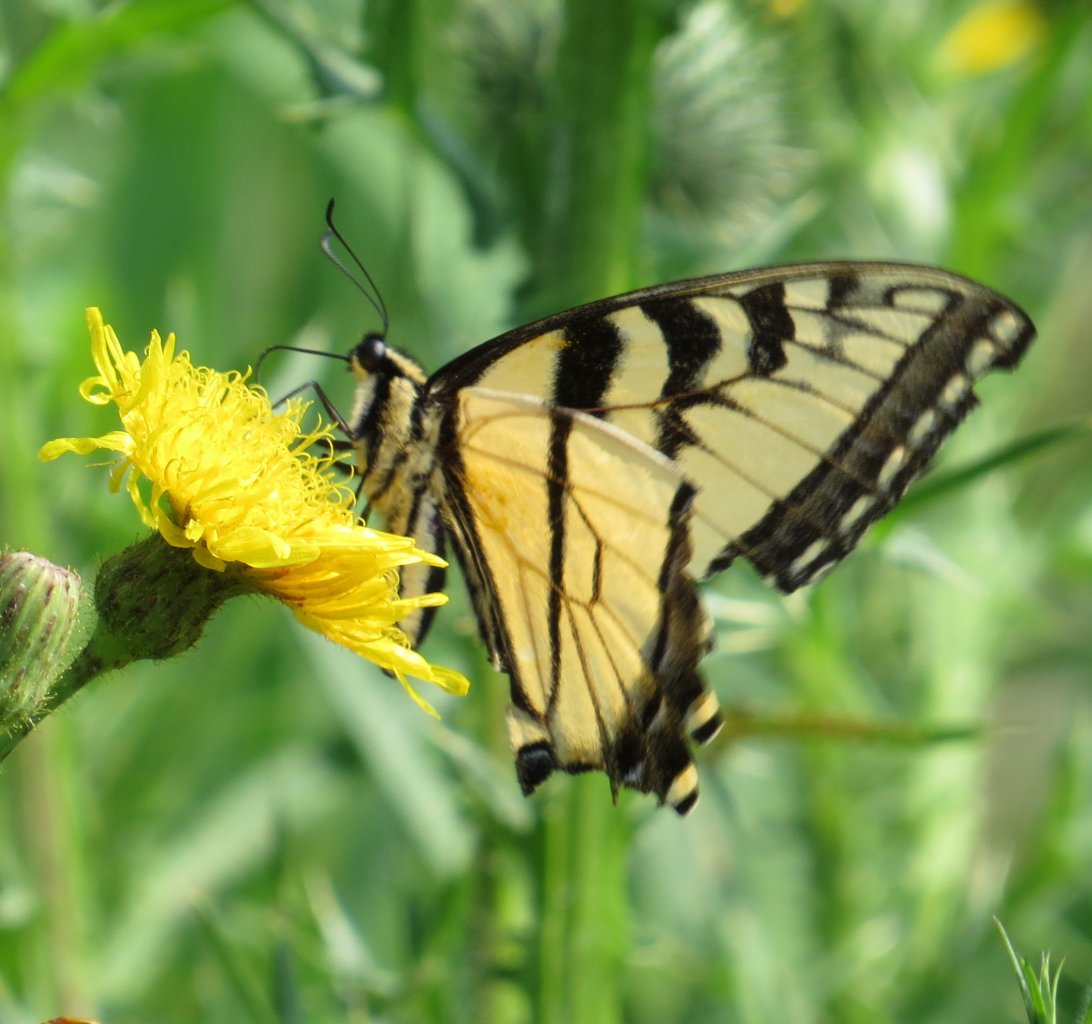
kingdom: Animalia
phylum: Arthropoda
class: Insecta
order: Lepidoptera
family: Papilionidae
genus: Pterourus
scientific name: Pterourus glaucus
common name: Eastern Tiger Swallowtail
